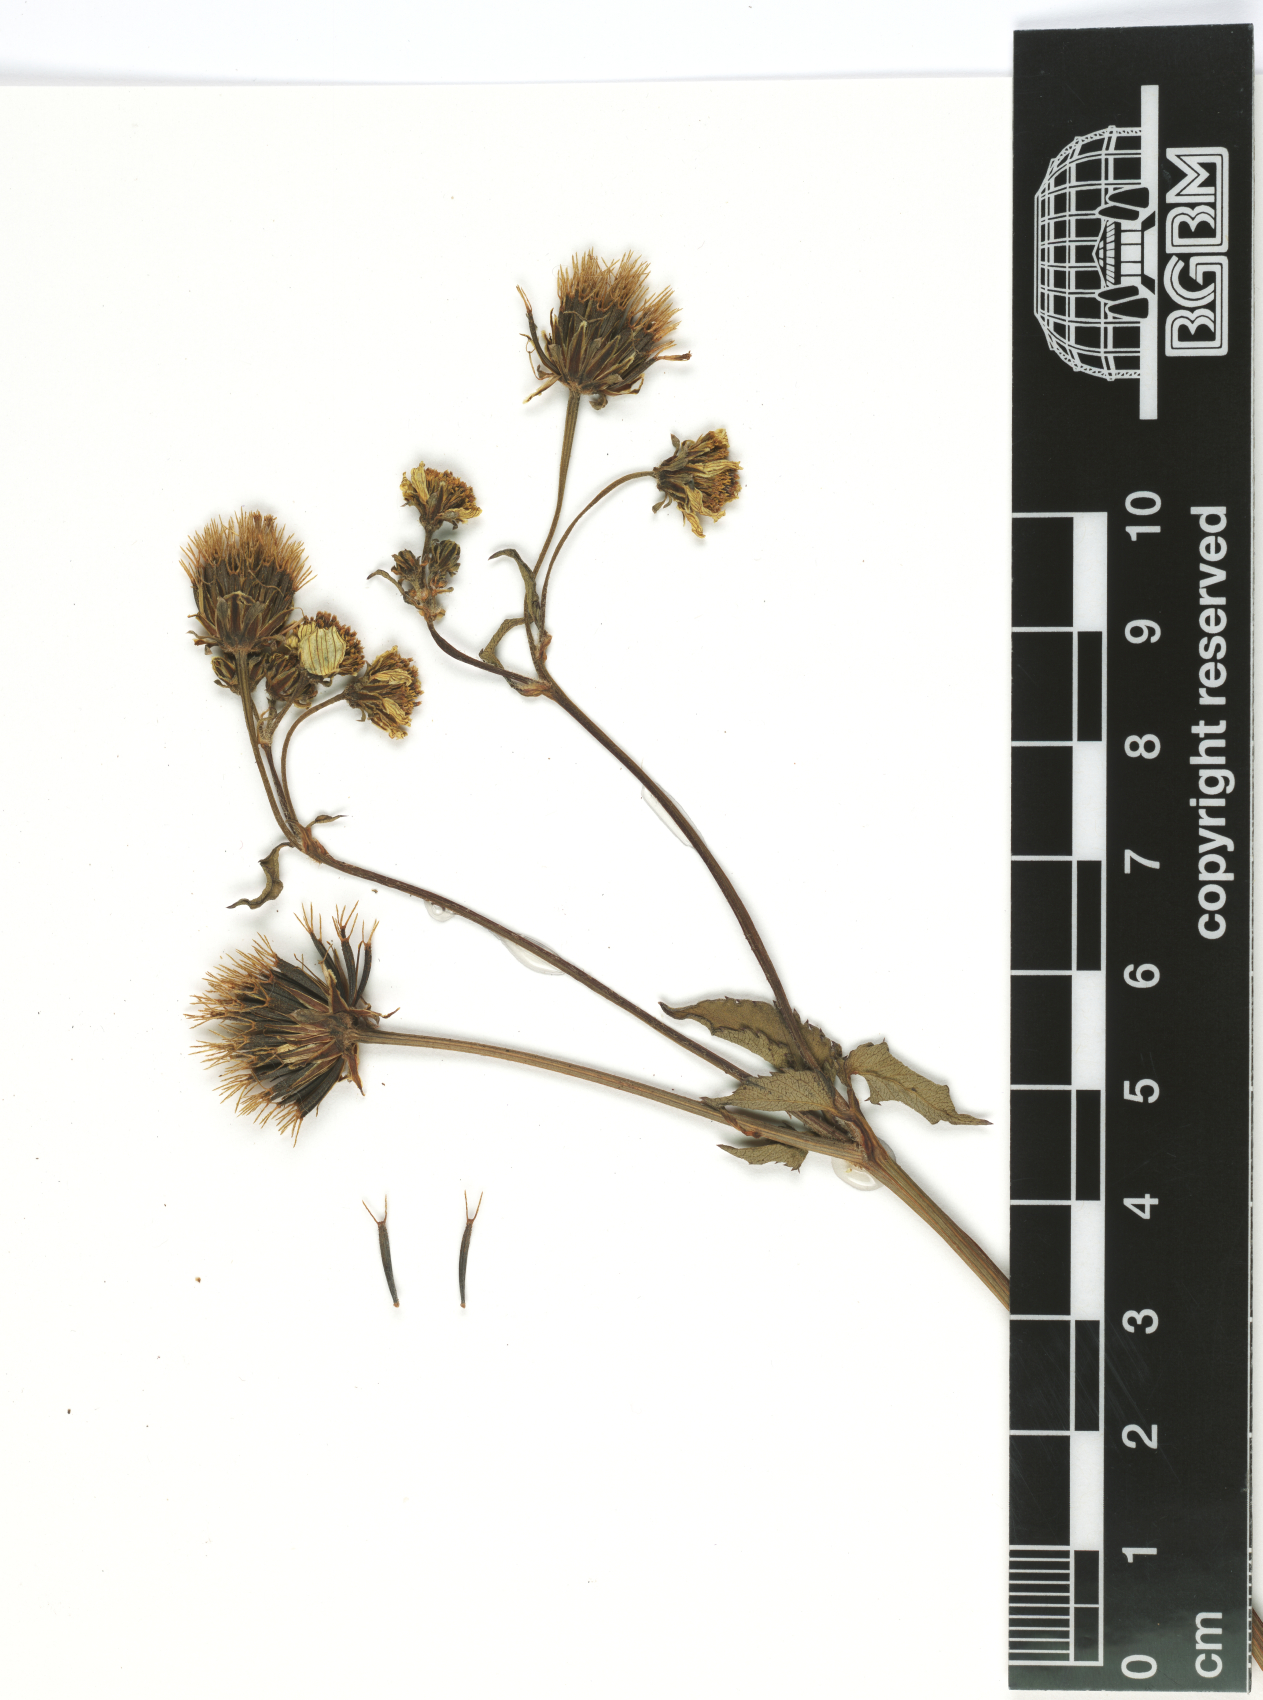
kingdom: Plantae
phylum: Tracheophyta
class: Magnoliopsida
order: Asterales
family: Asteraceae
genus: Bidens
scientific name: Bidens pilosa
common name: Black-jack
